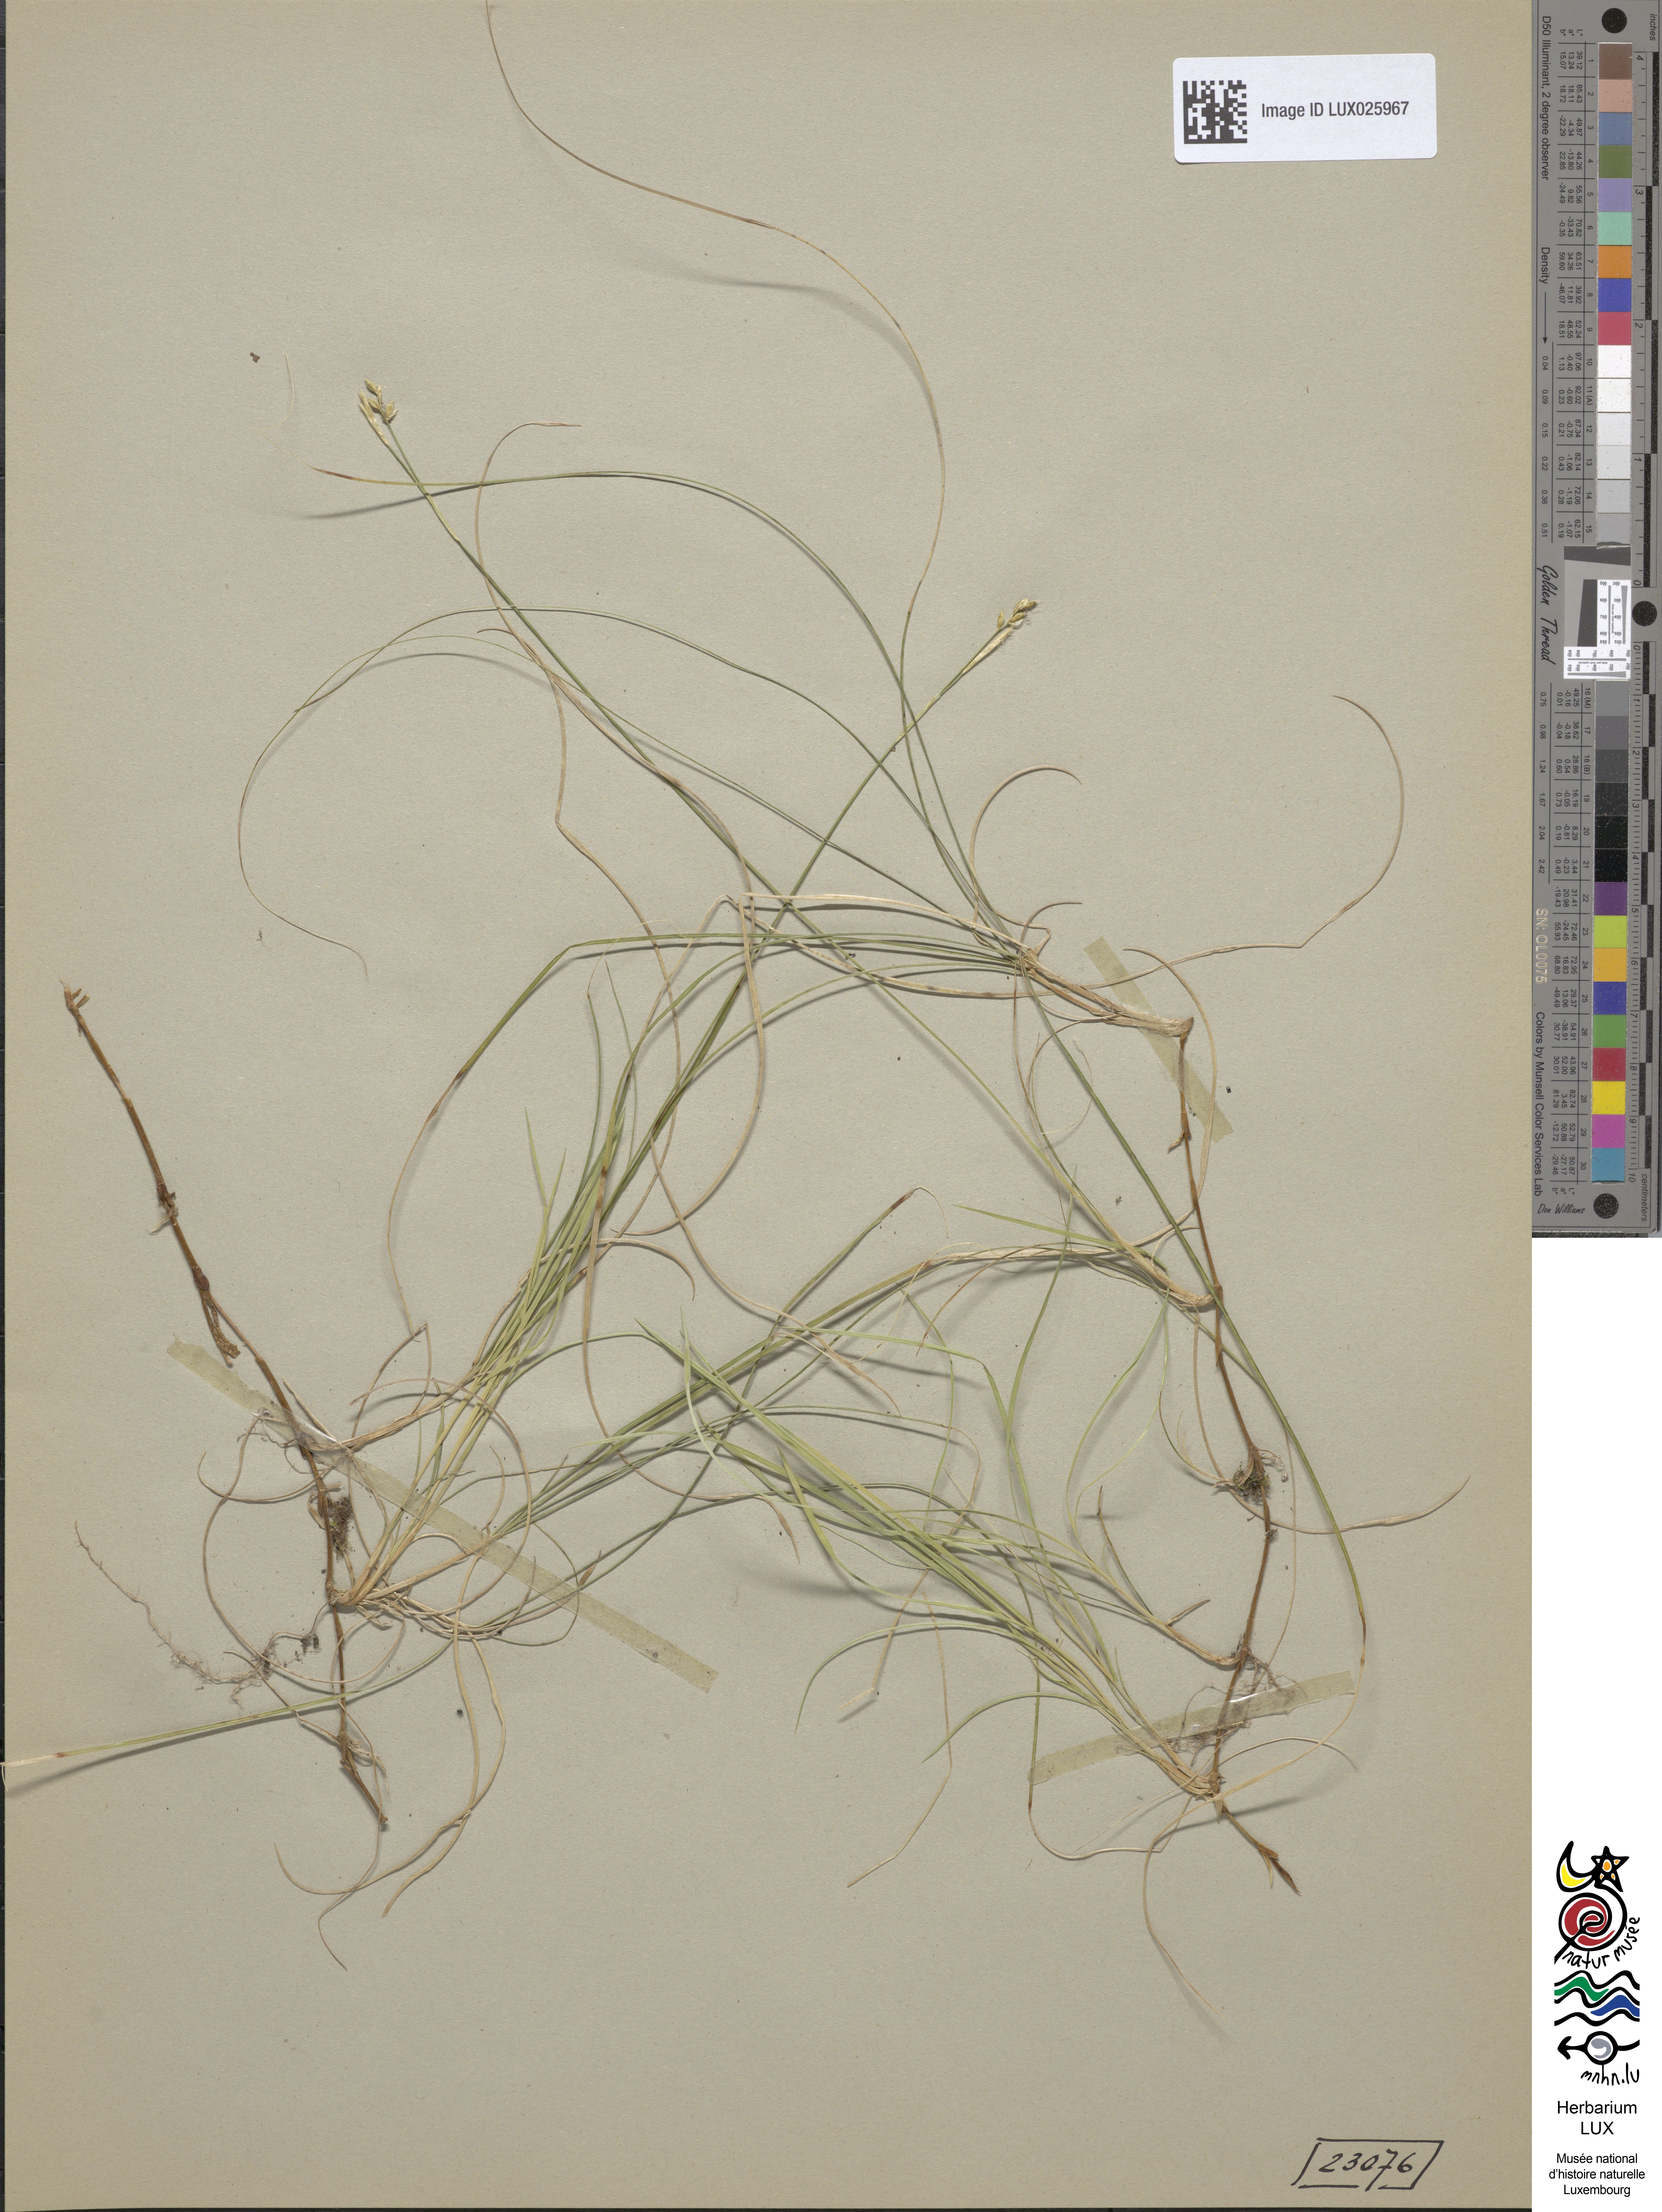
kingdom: Plantae
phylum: Tracheophyta
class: Liliopsida
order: Poales
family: Cyperaceae
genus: Carex
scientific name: Carex alba
